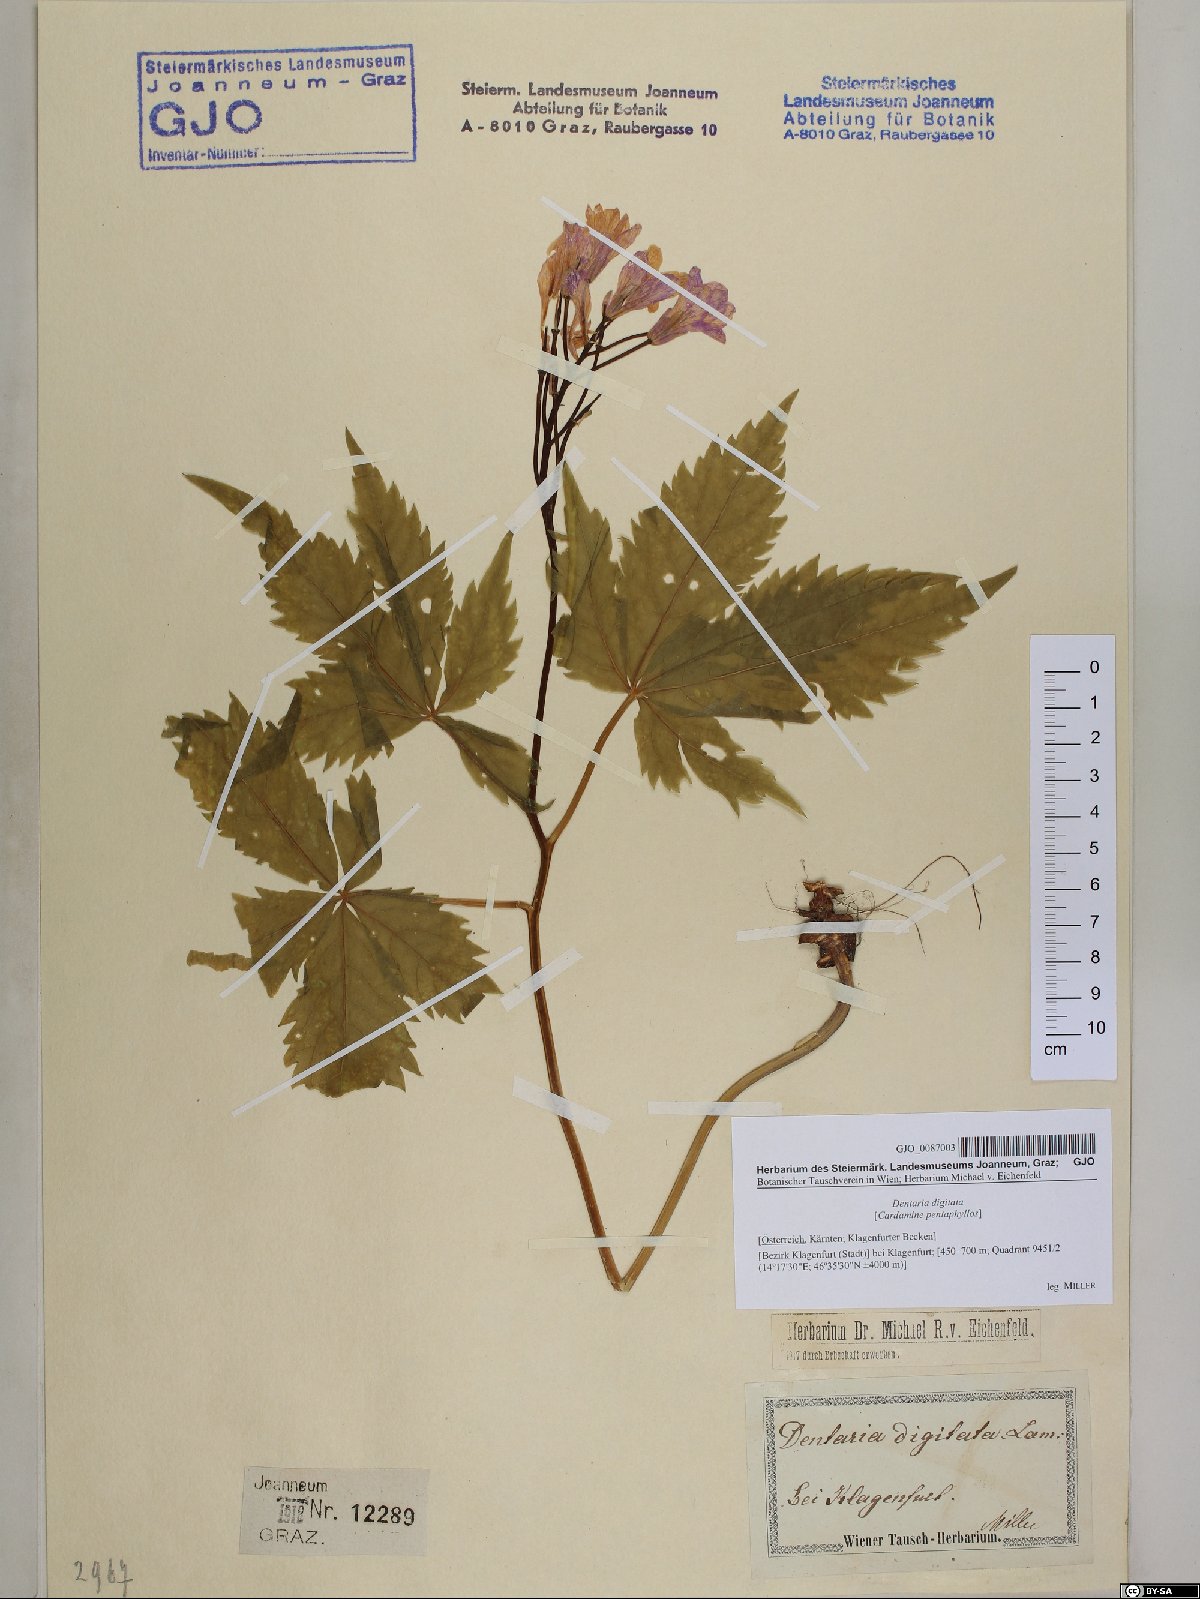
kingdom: Plantae
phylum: Tracheophyta
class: Magnoliopsida
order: Brassicales
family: Brassicaceae
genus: Cardamine
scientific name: Cardamine pentaphyllos
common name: Five-leaflet bitter-cress
